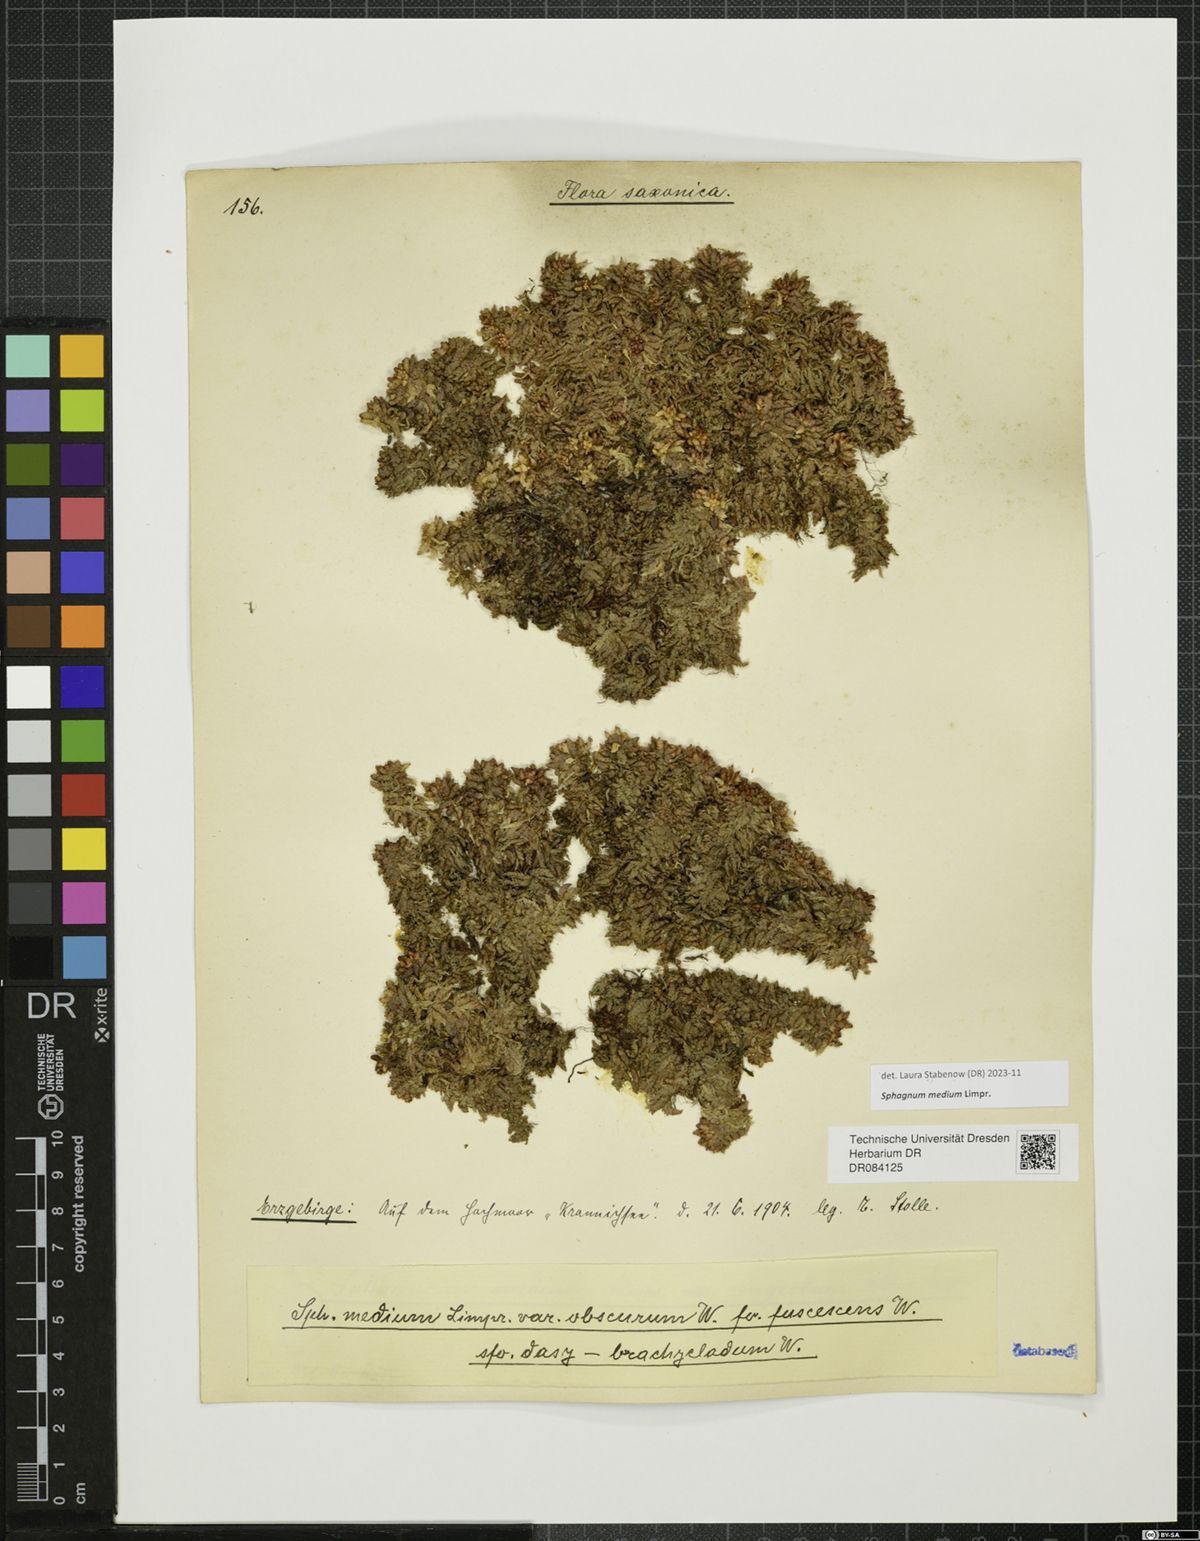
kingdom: Plantae
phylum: Bryophyta
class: Sphagnopsida
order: Sphagnales
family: Sphagnaceae
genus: Sphagnum
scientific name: Sphagnum medium
